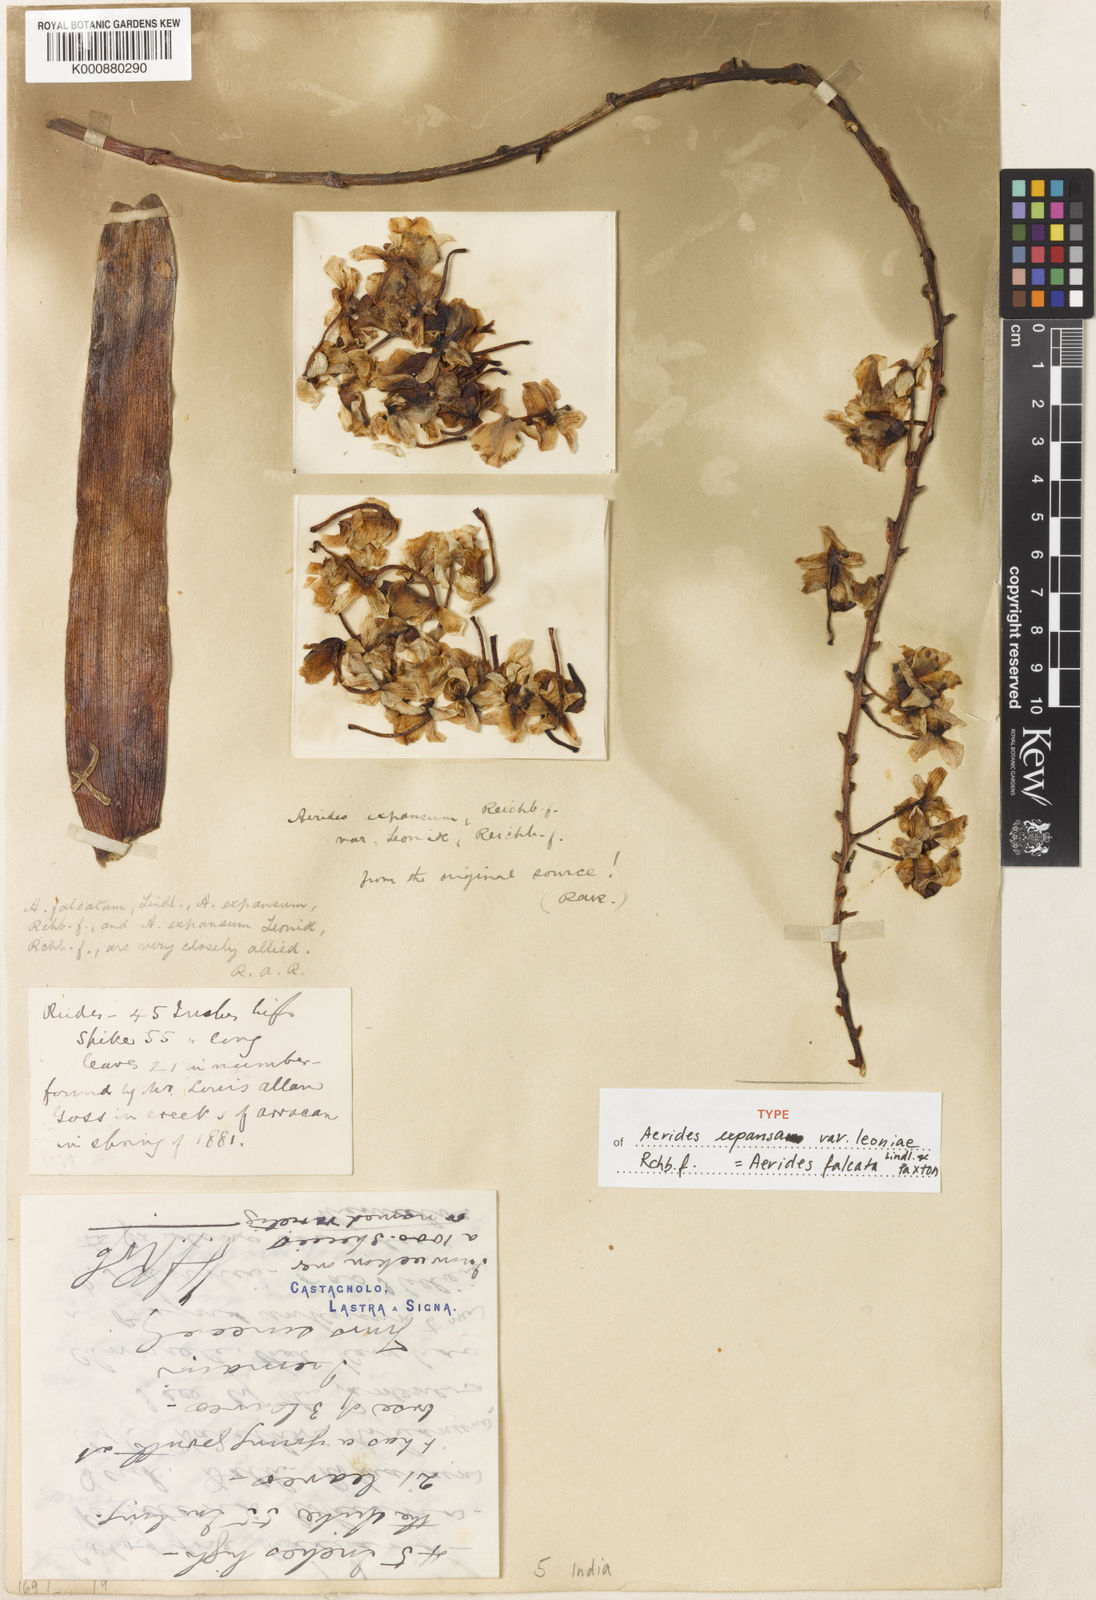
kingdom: Plantae
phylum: Tracheophyta
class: Liliopsida
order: Asparagales
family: Orchidaceae
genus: Aerides
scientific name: Aerides falcata
